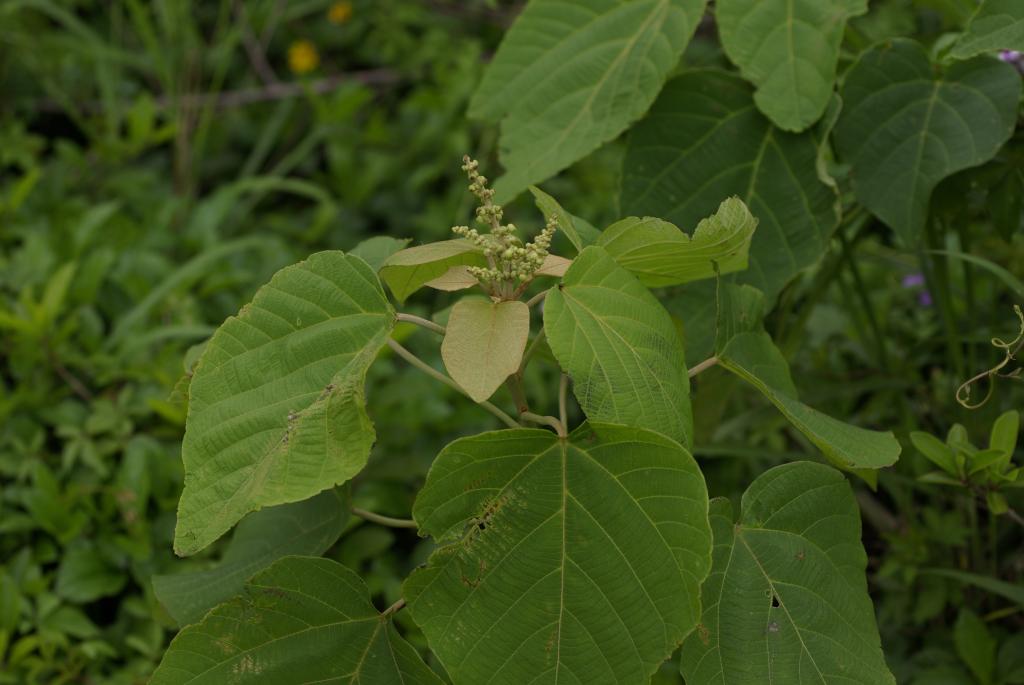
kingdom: Plantae
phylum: Tracheophyta
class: Magnoliopsida
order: Malpighiales
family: Euphorbiaceae
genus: Mallotus
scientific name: Mallotus japonicus
